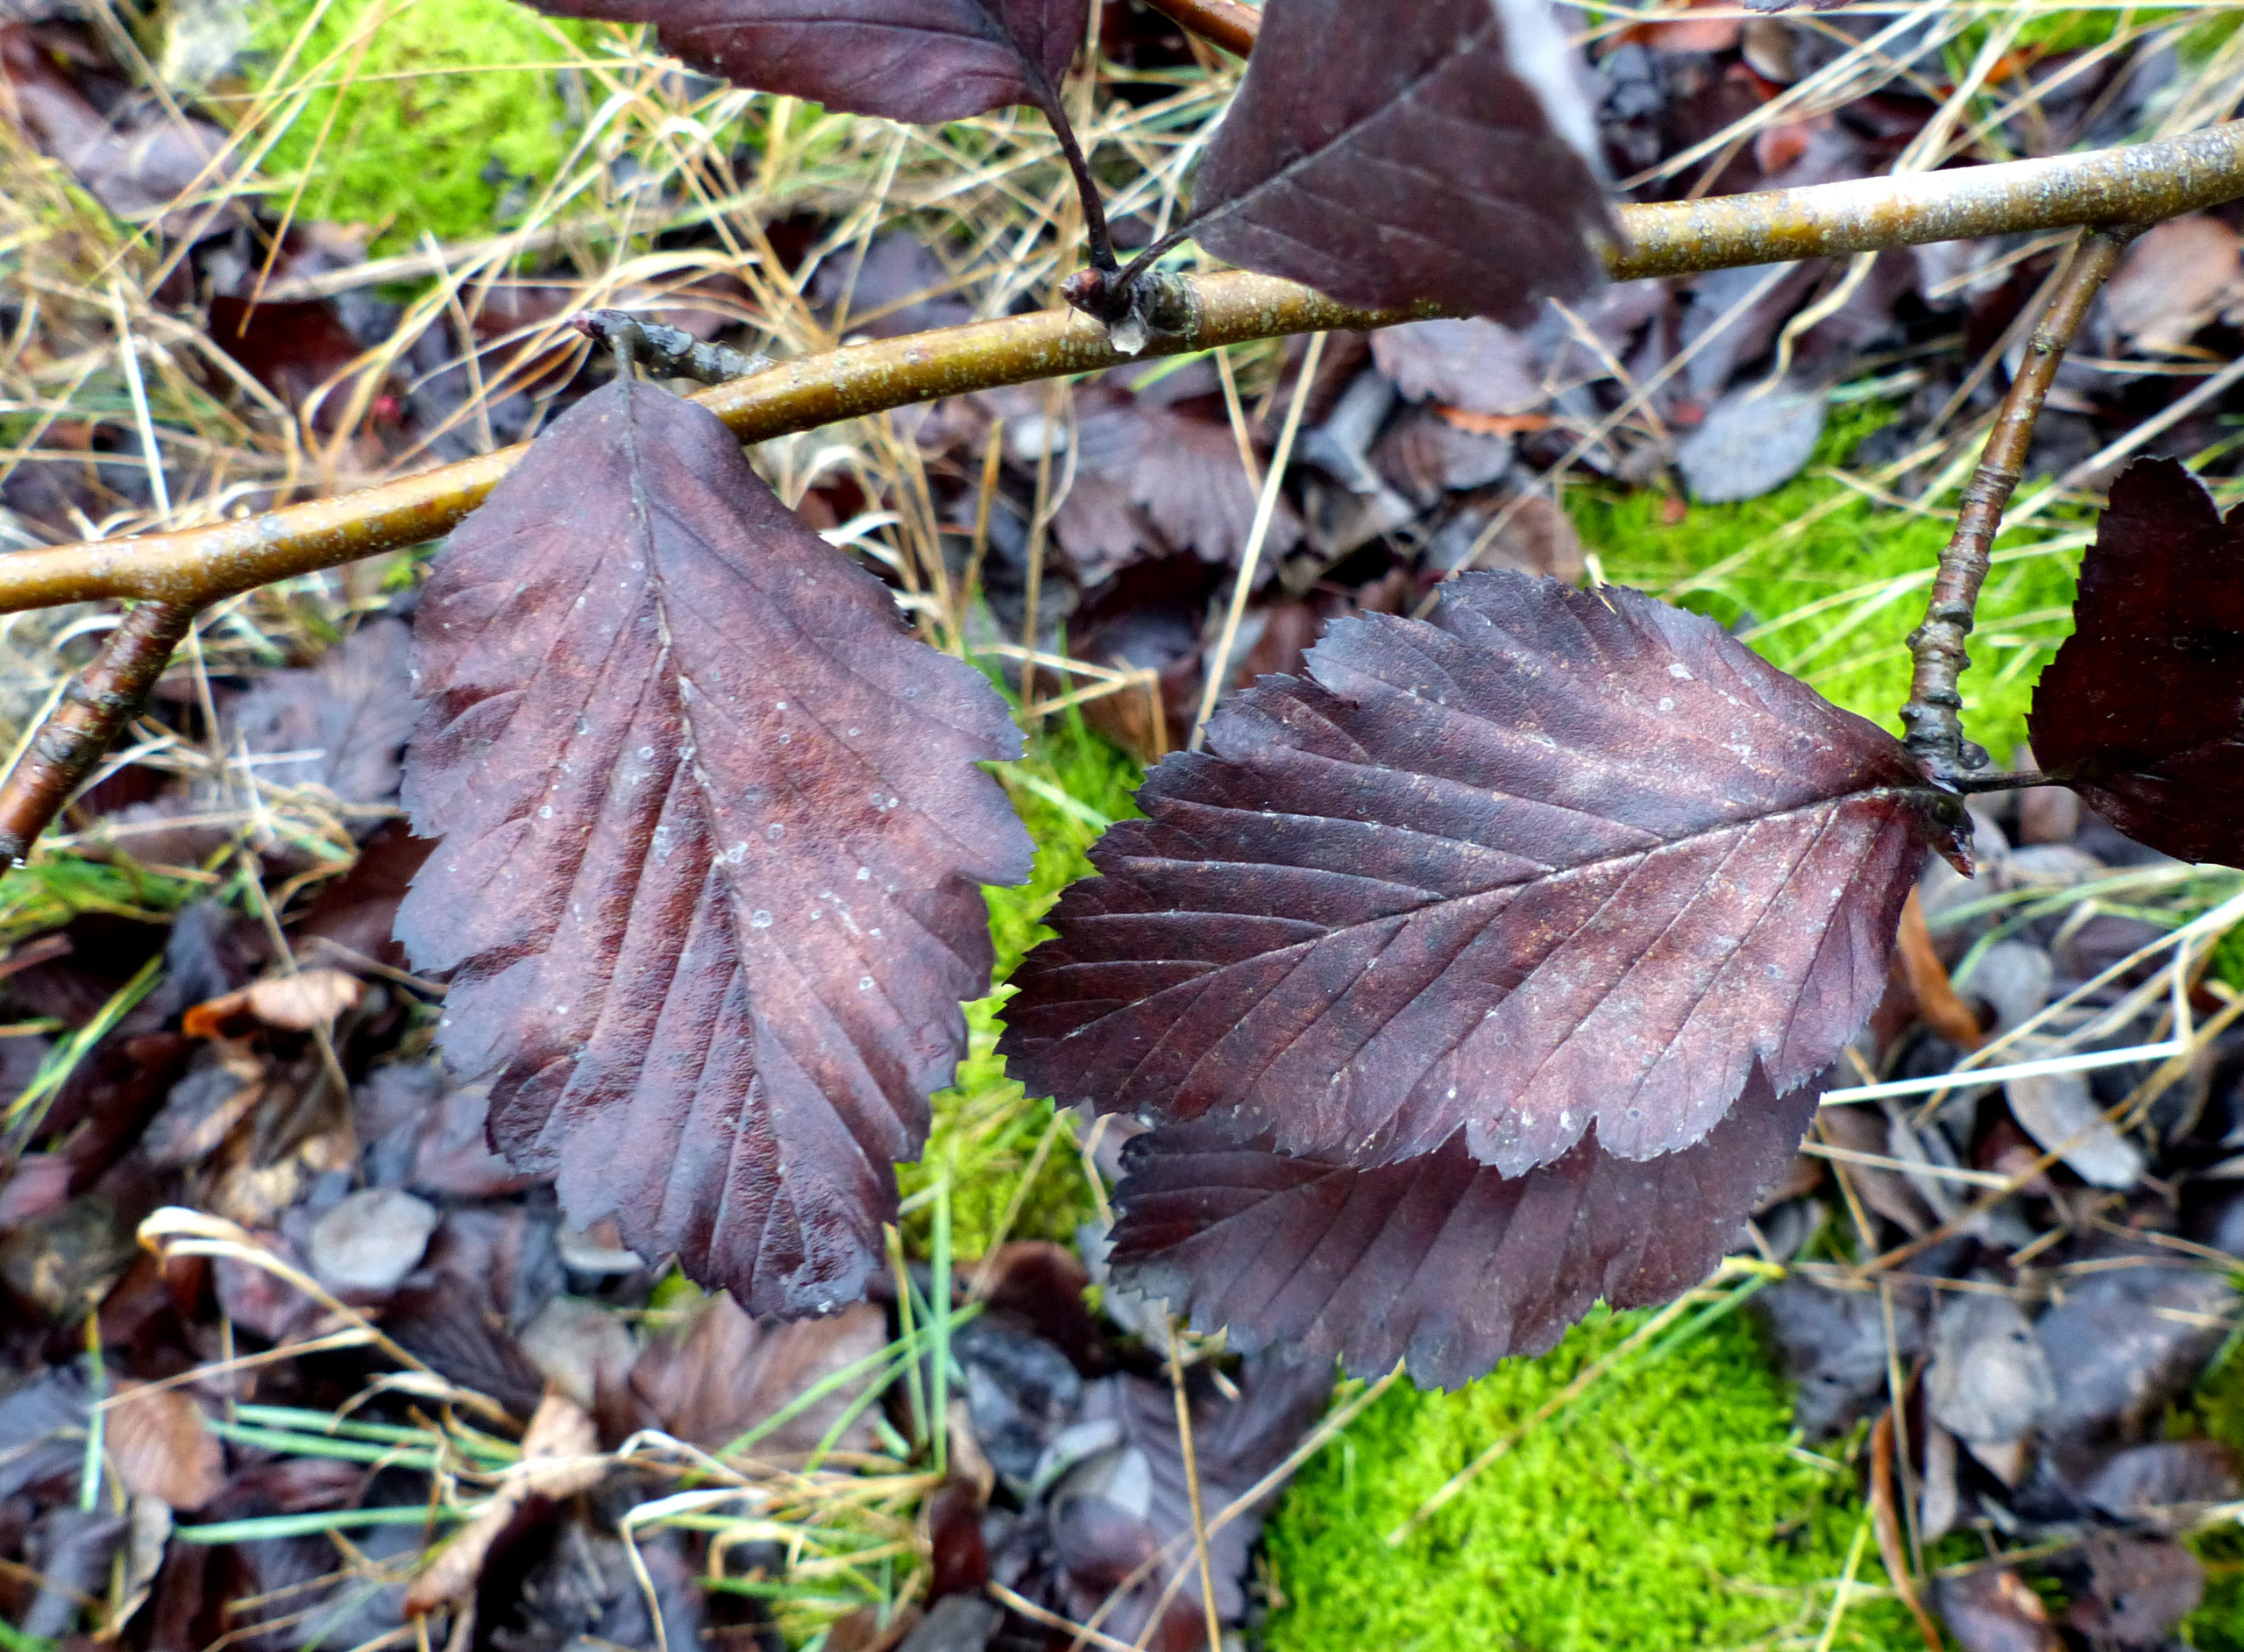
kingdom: Plantae
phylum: Tracheophyta
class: Magnoliopsida
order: Rosales
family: Rosaceae
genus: Hedlundia
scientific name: Hedlundia mougeotii
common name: Pyrenæisk røn
